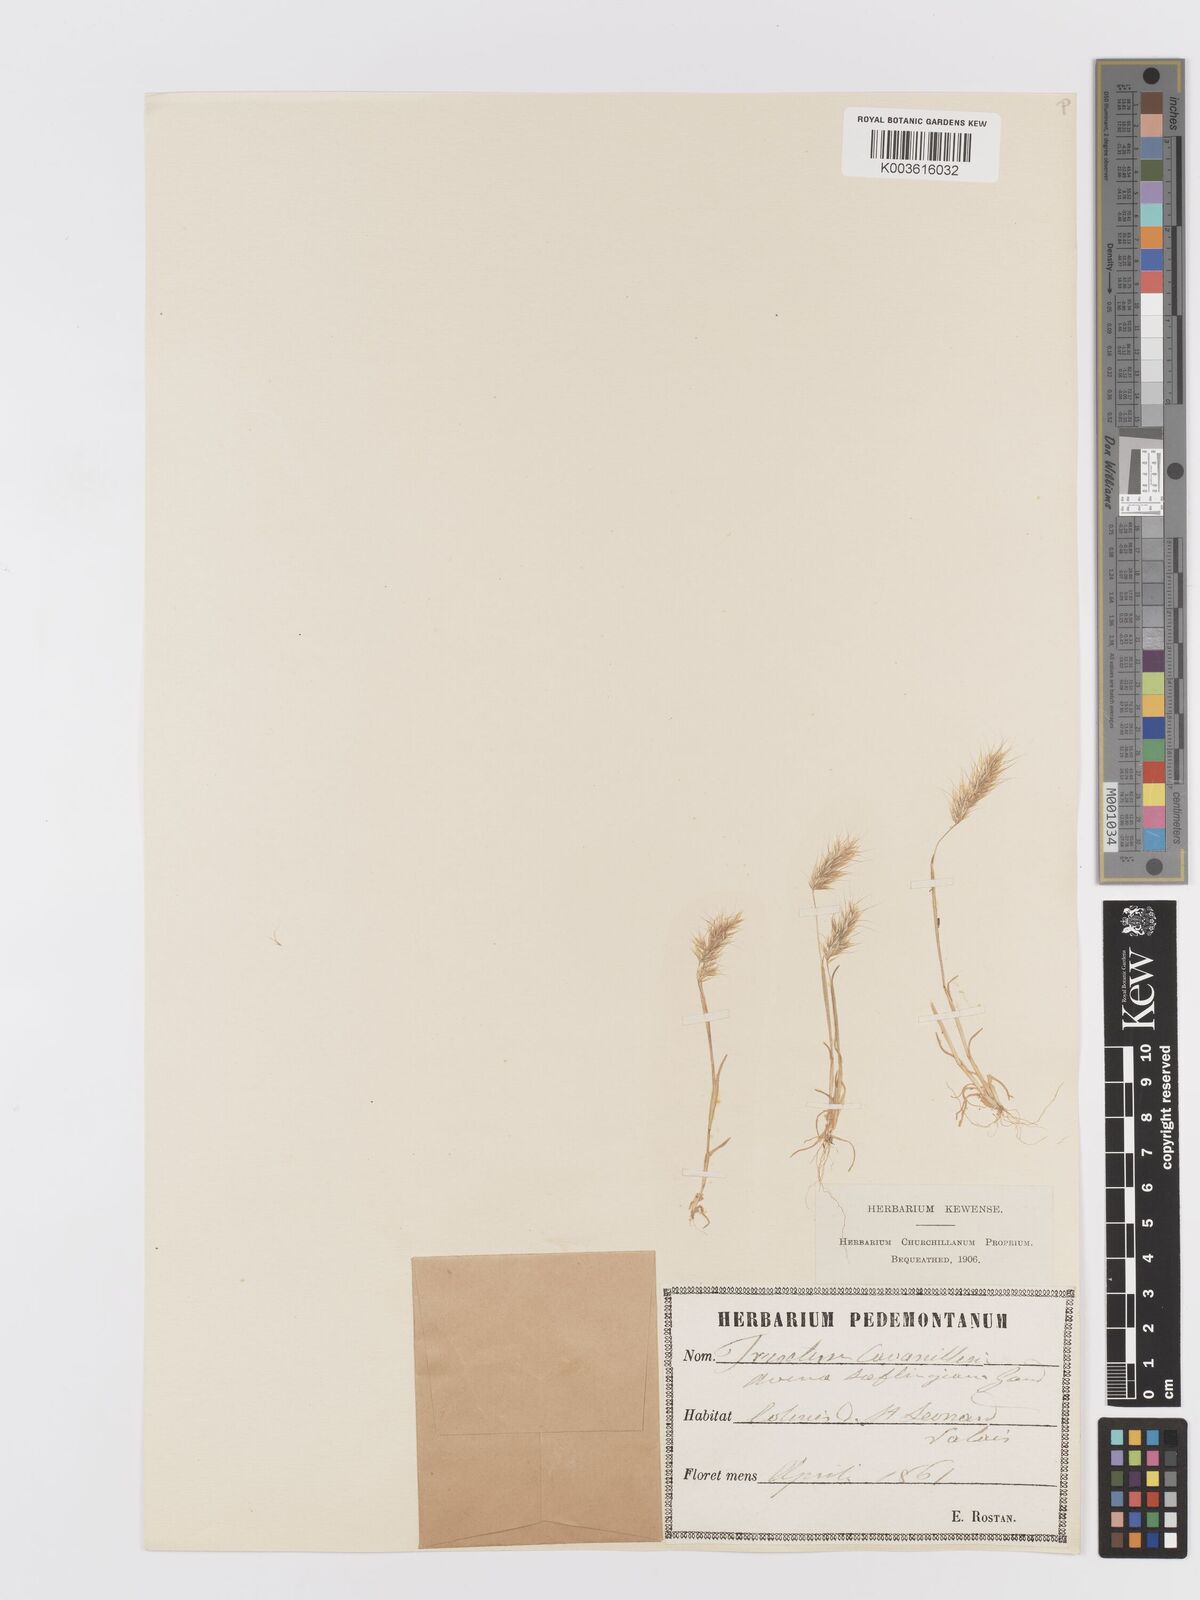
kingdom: Plantae
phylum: Tracheophyta
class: Liliopsida
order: Poales
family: Poaceae
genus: Trisetaria
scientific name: Trisetaria loeflingiana
